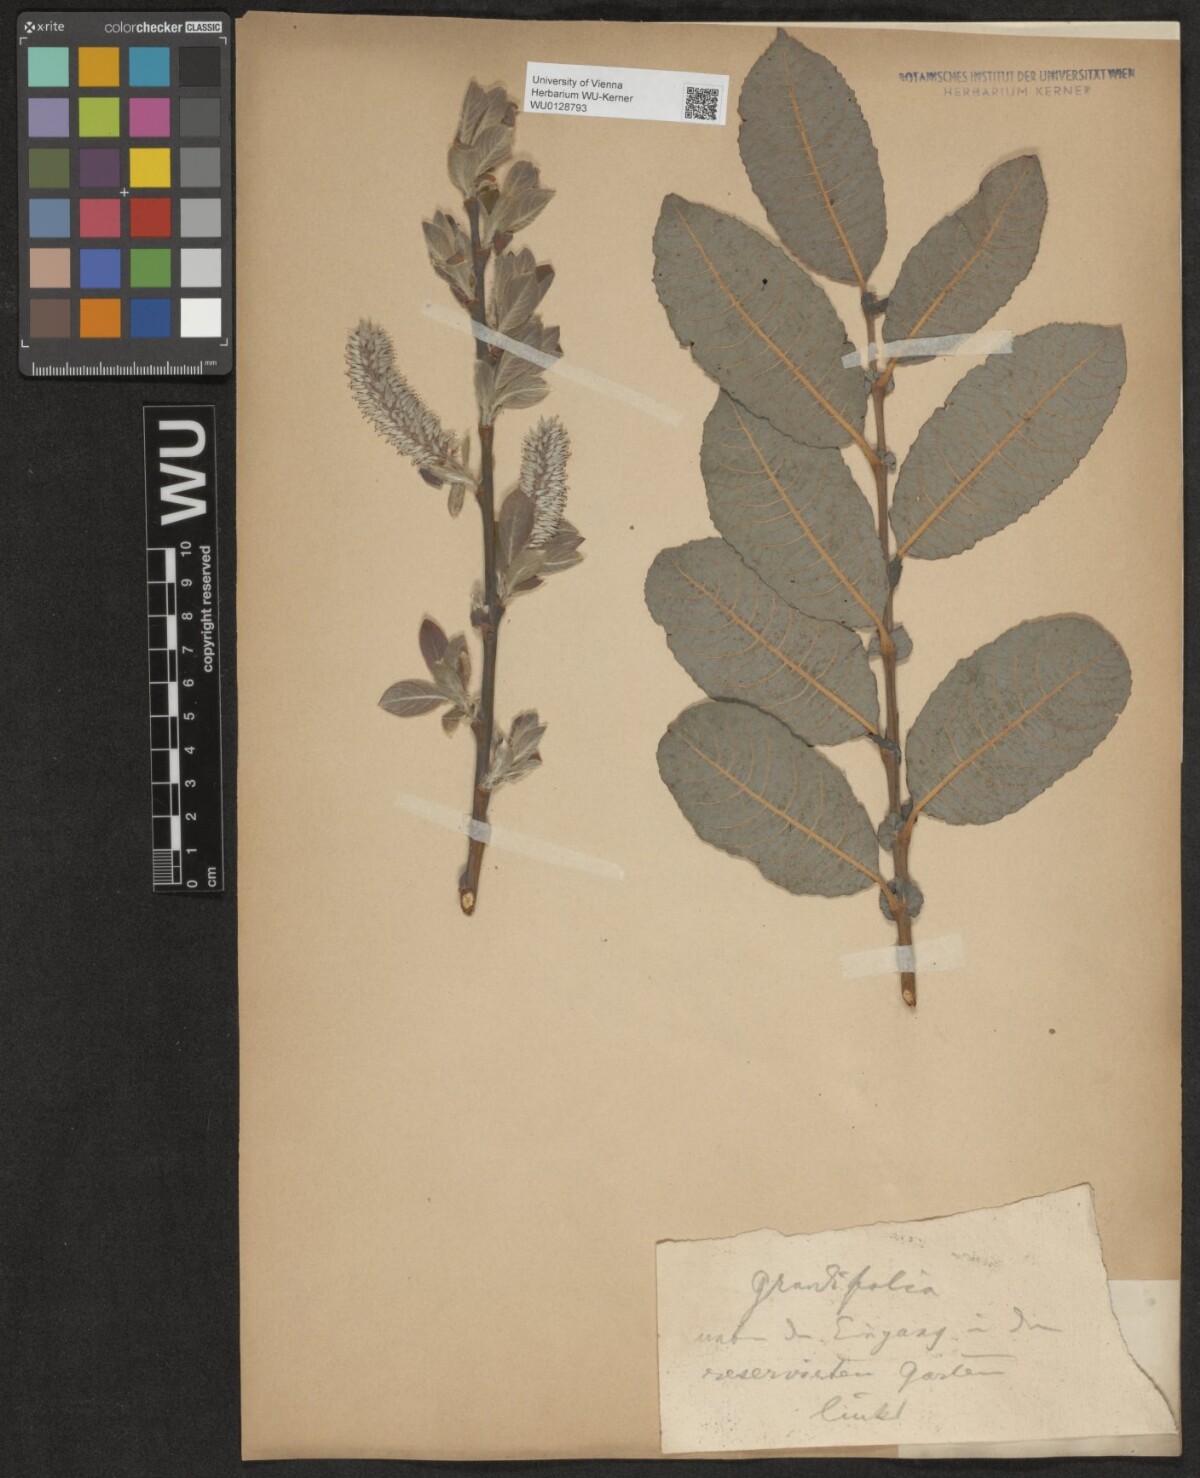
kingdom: Plantae
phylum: Tracheophyta
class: Magnoliopsida
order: Malpighiales
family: Salicaceae
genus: Salix
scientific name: Salix appendiculata
